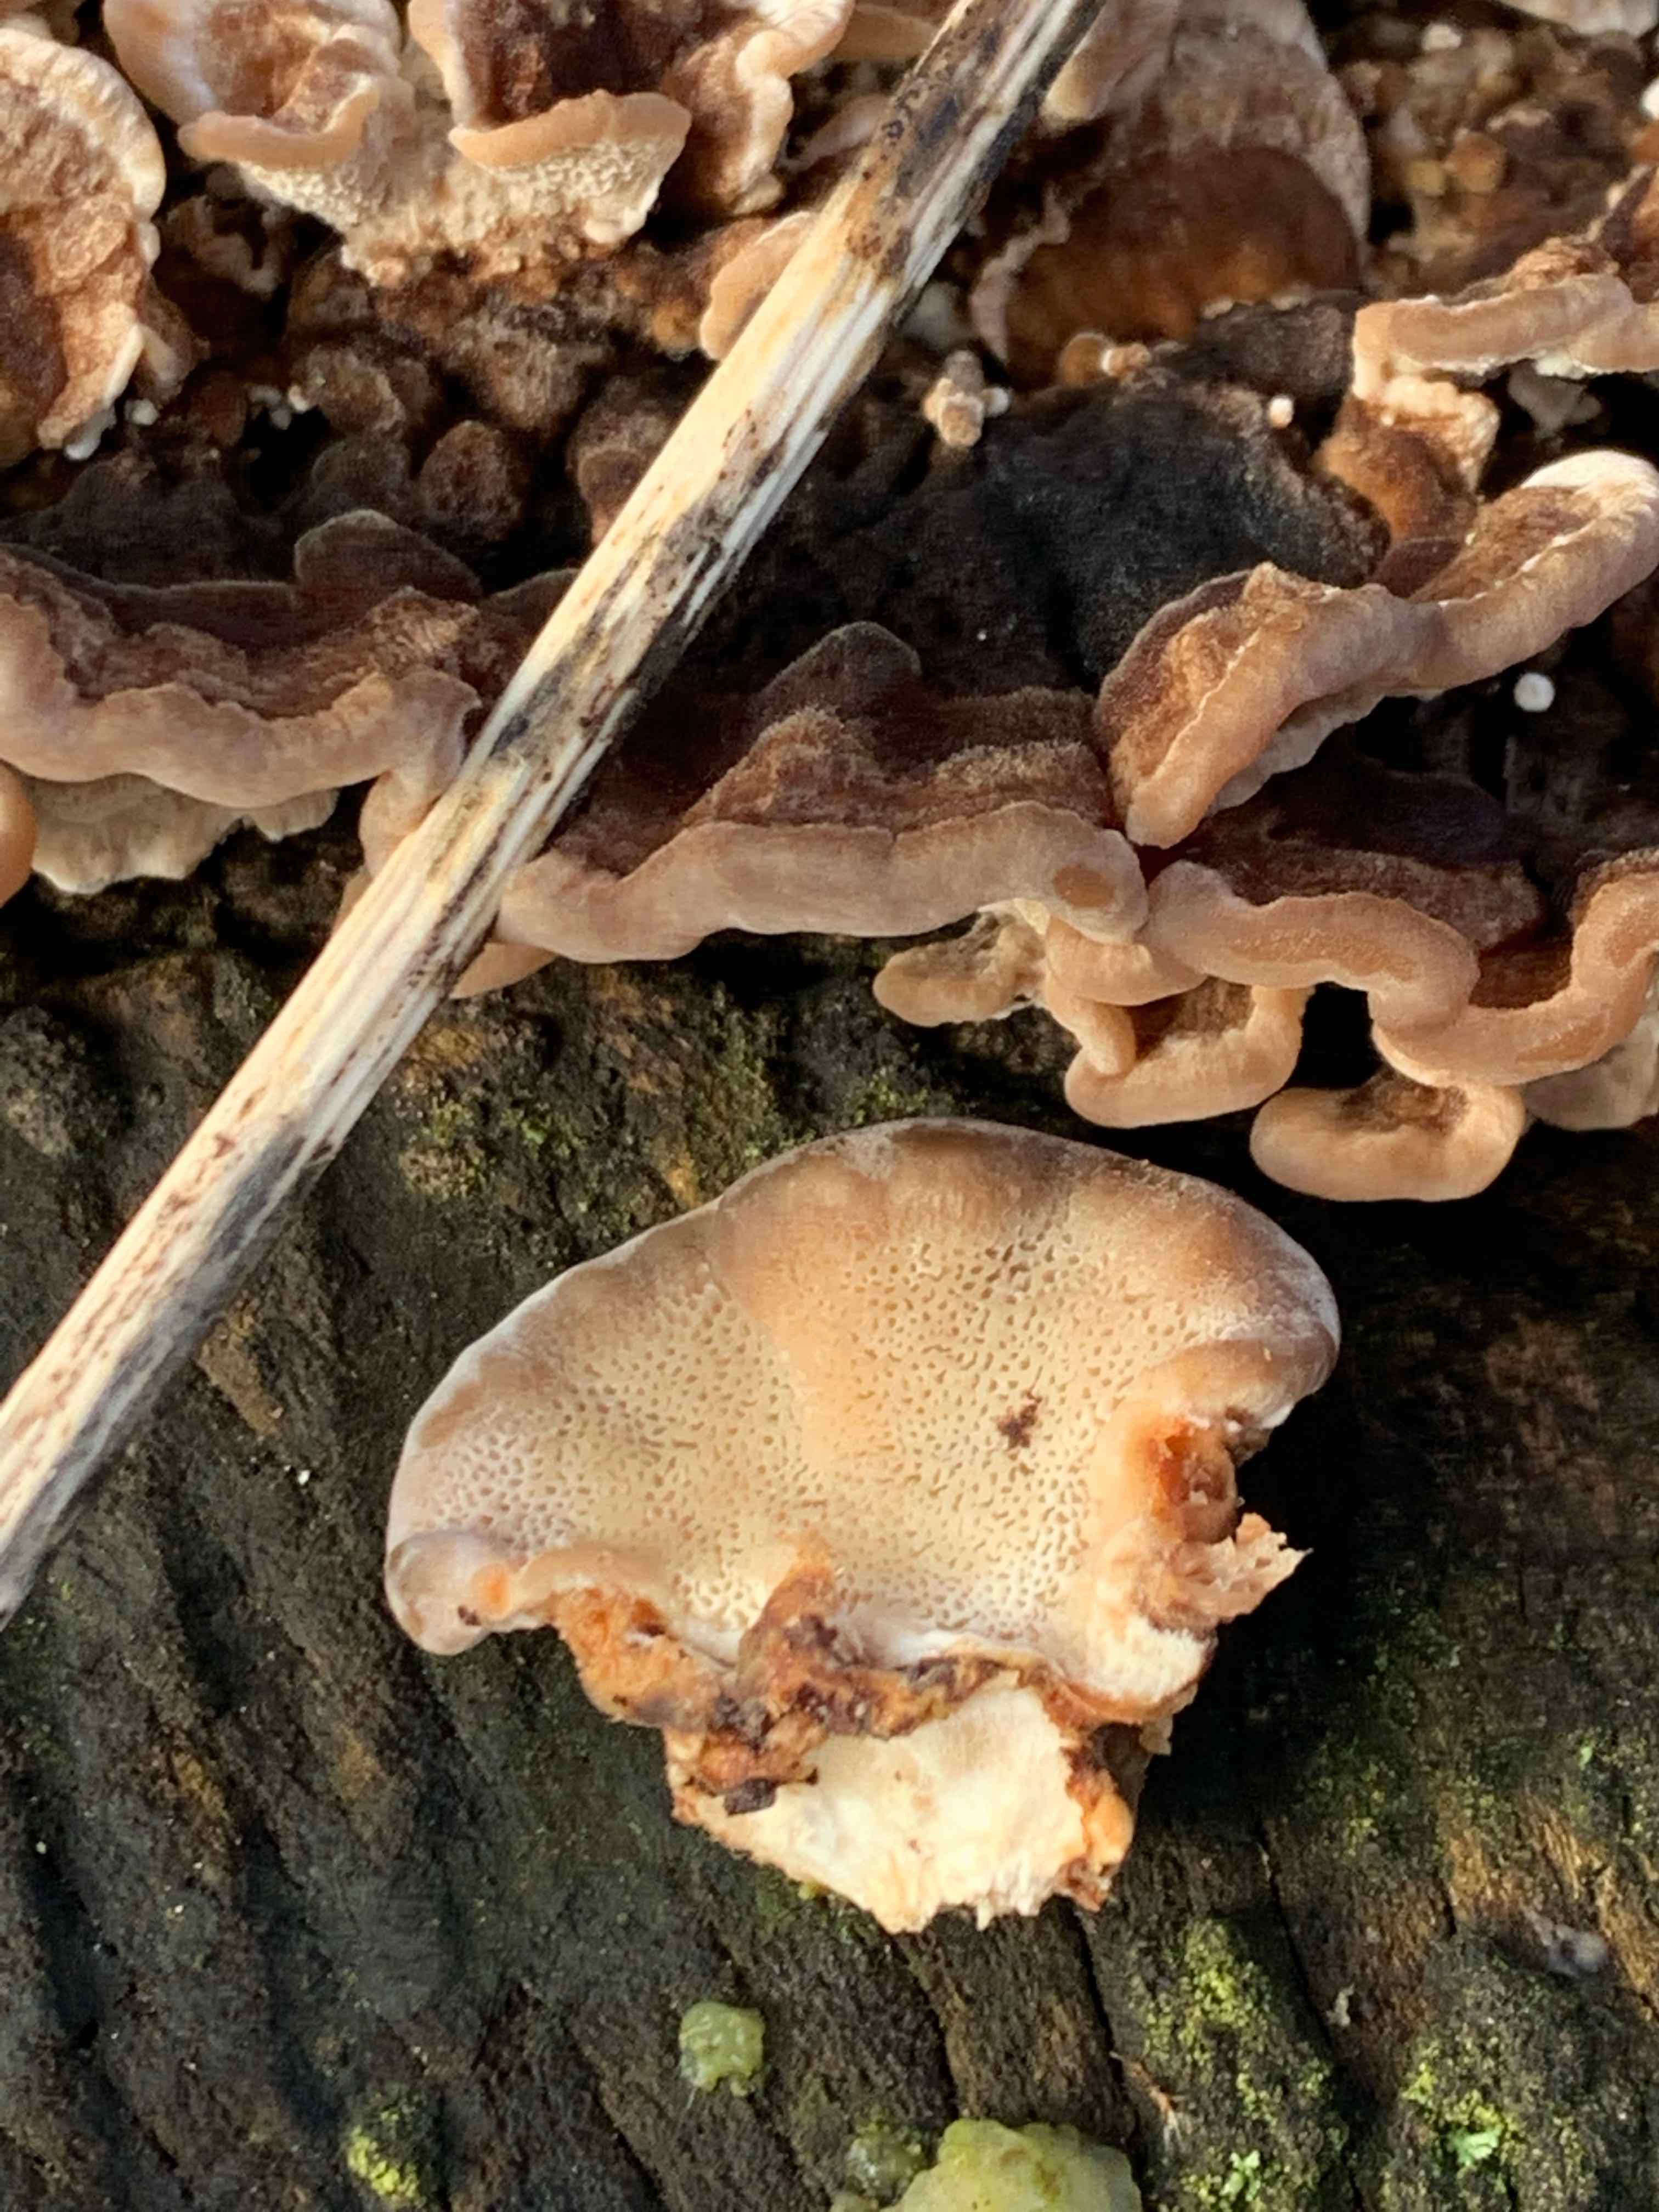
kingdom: Fungi
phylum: Basidiomycota
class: Agaricomycetes
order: Polyporales
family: Polyporaceae
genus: Trametes
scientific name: Trametes versicolor
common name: broget læderporesvamp
